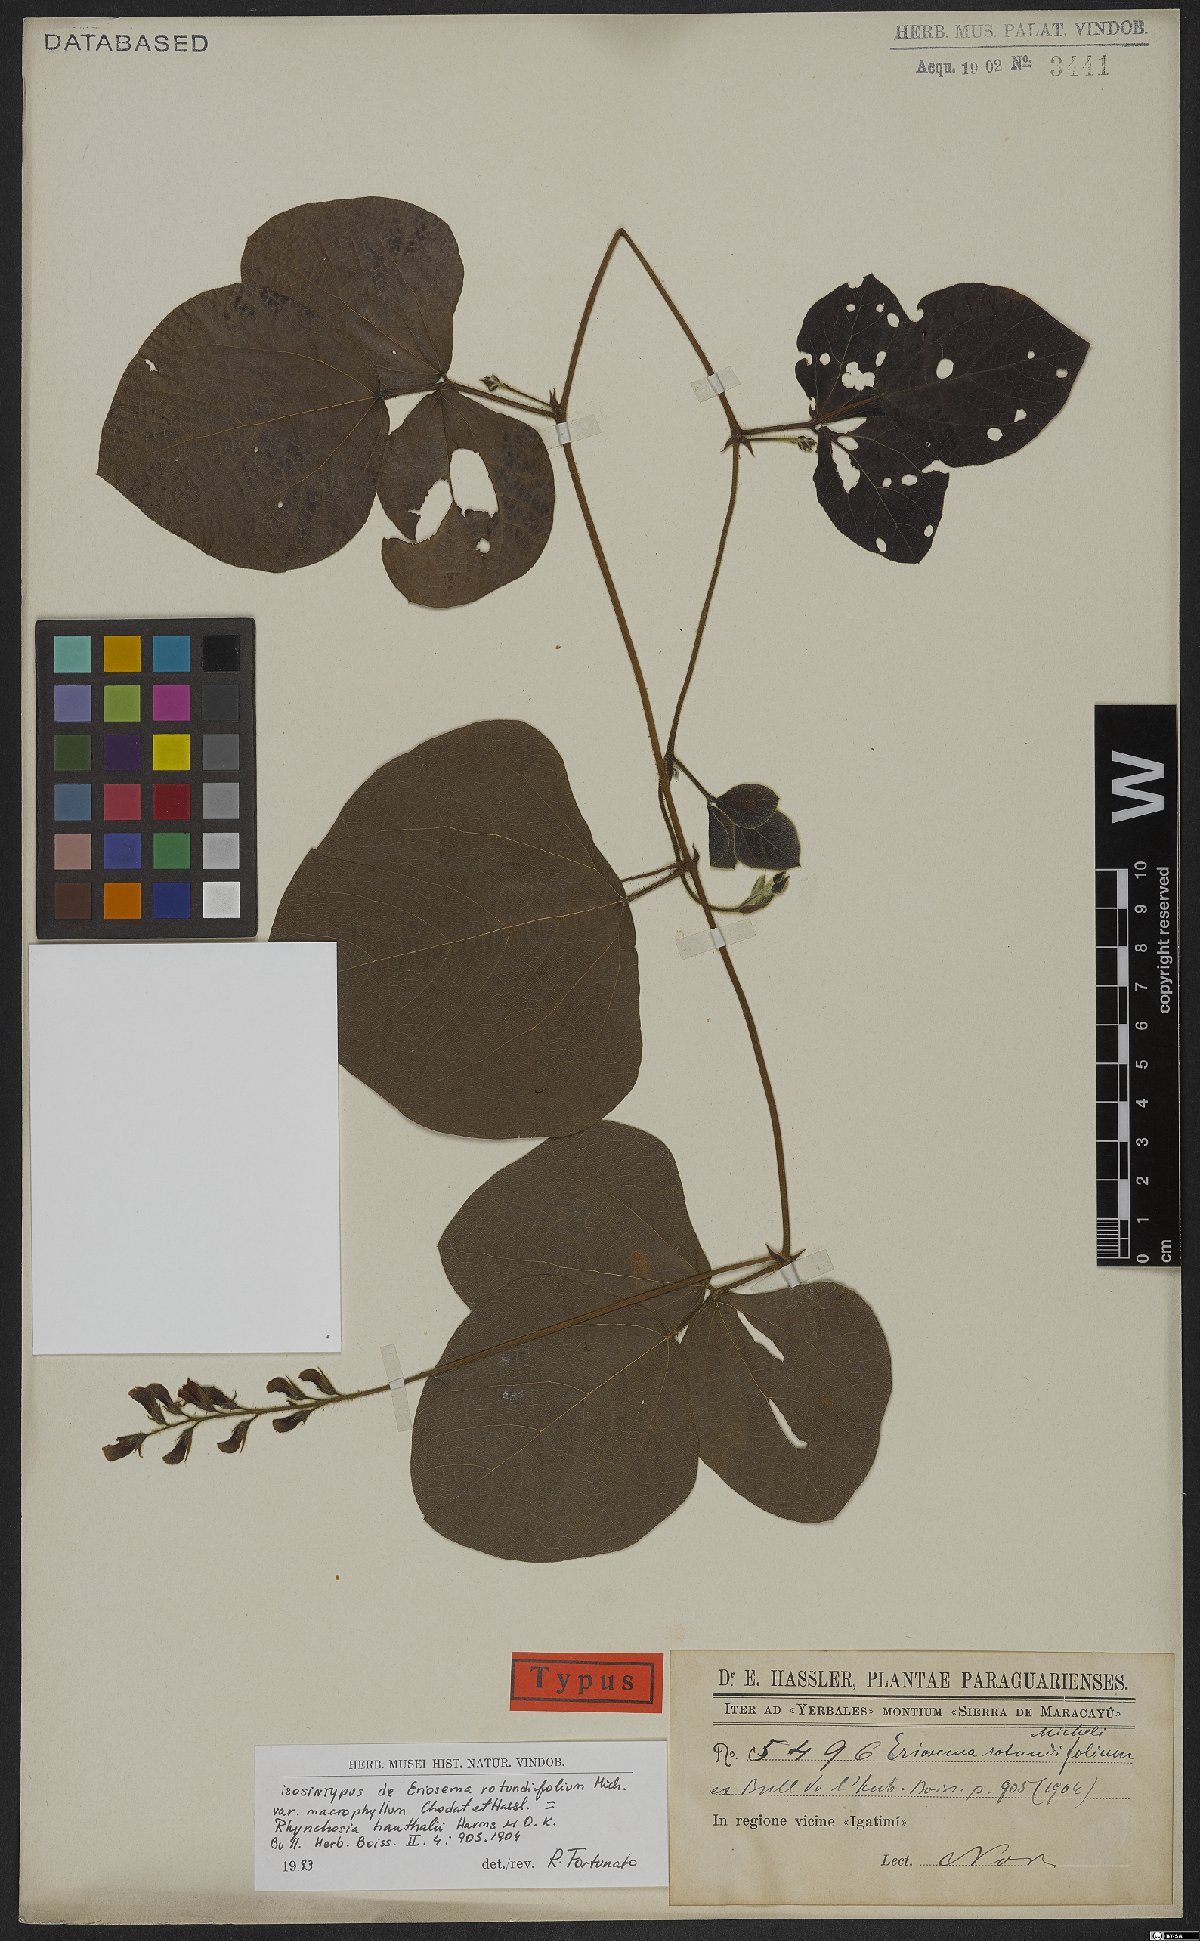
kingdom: Plantae
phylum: Tracheophyta
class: Magnoliopsida
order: Fabales
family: Fabaceae
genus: Rhynchosia
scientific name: Rhynchosia hauthalii
